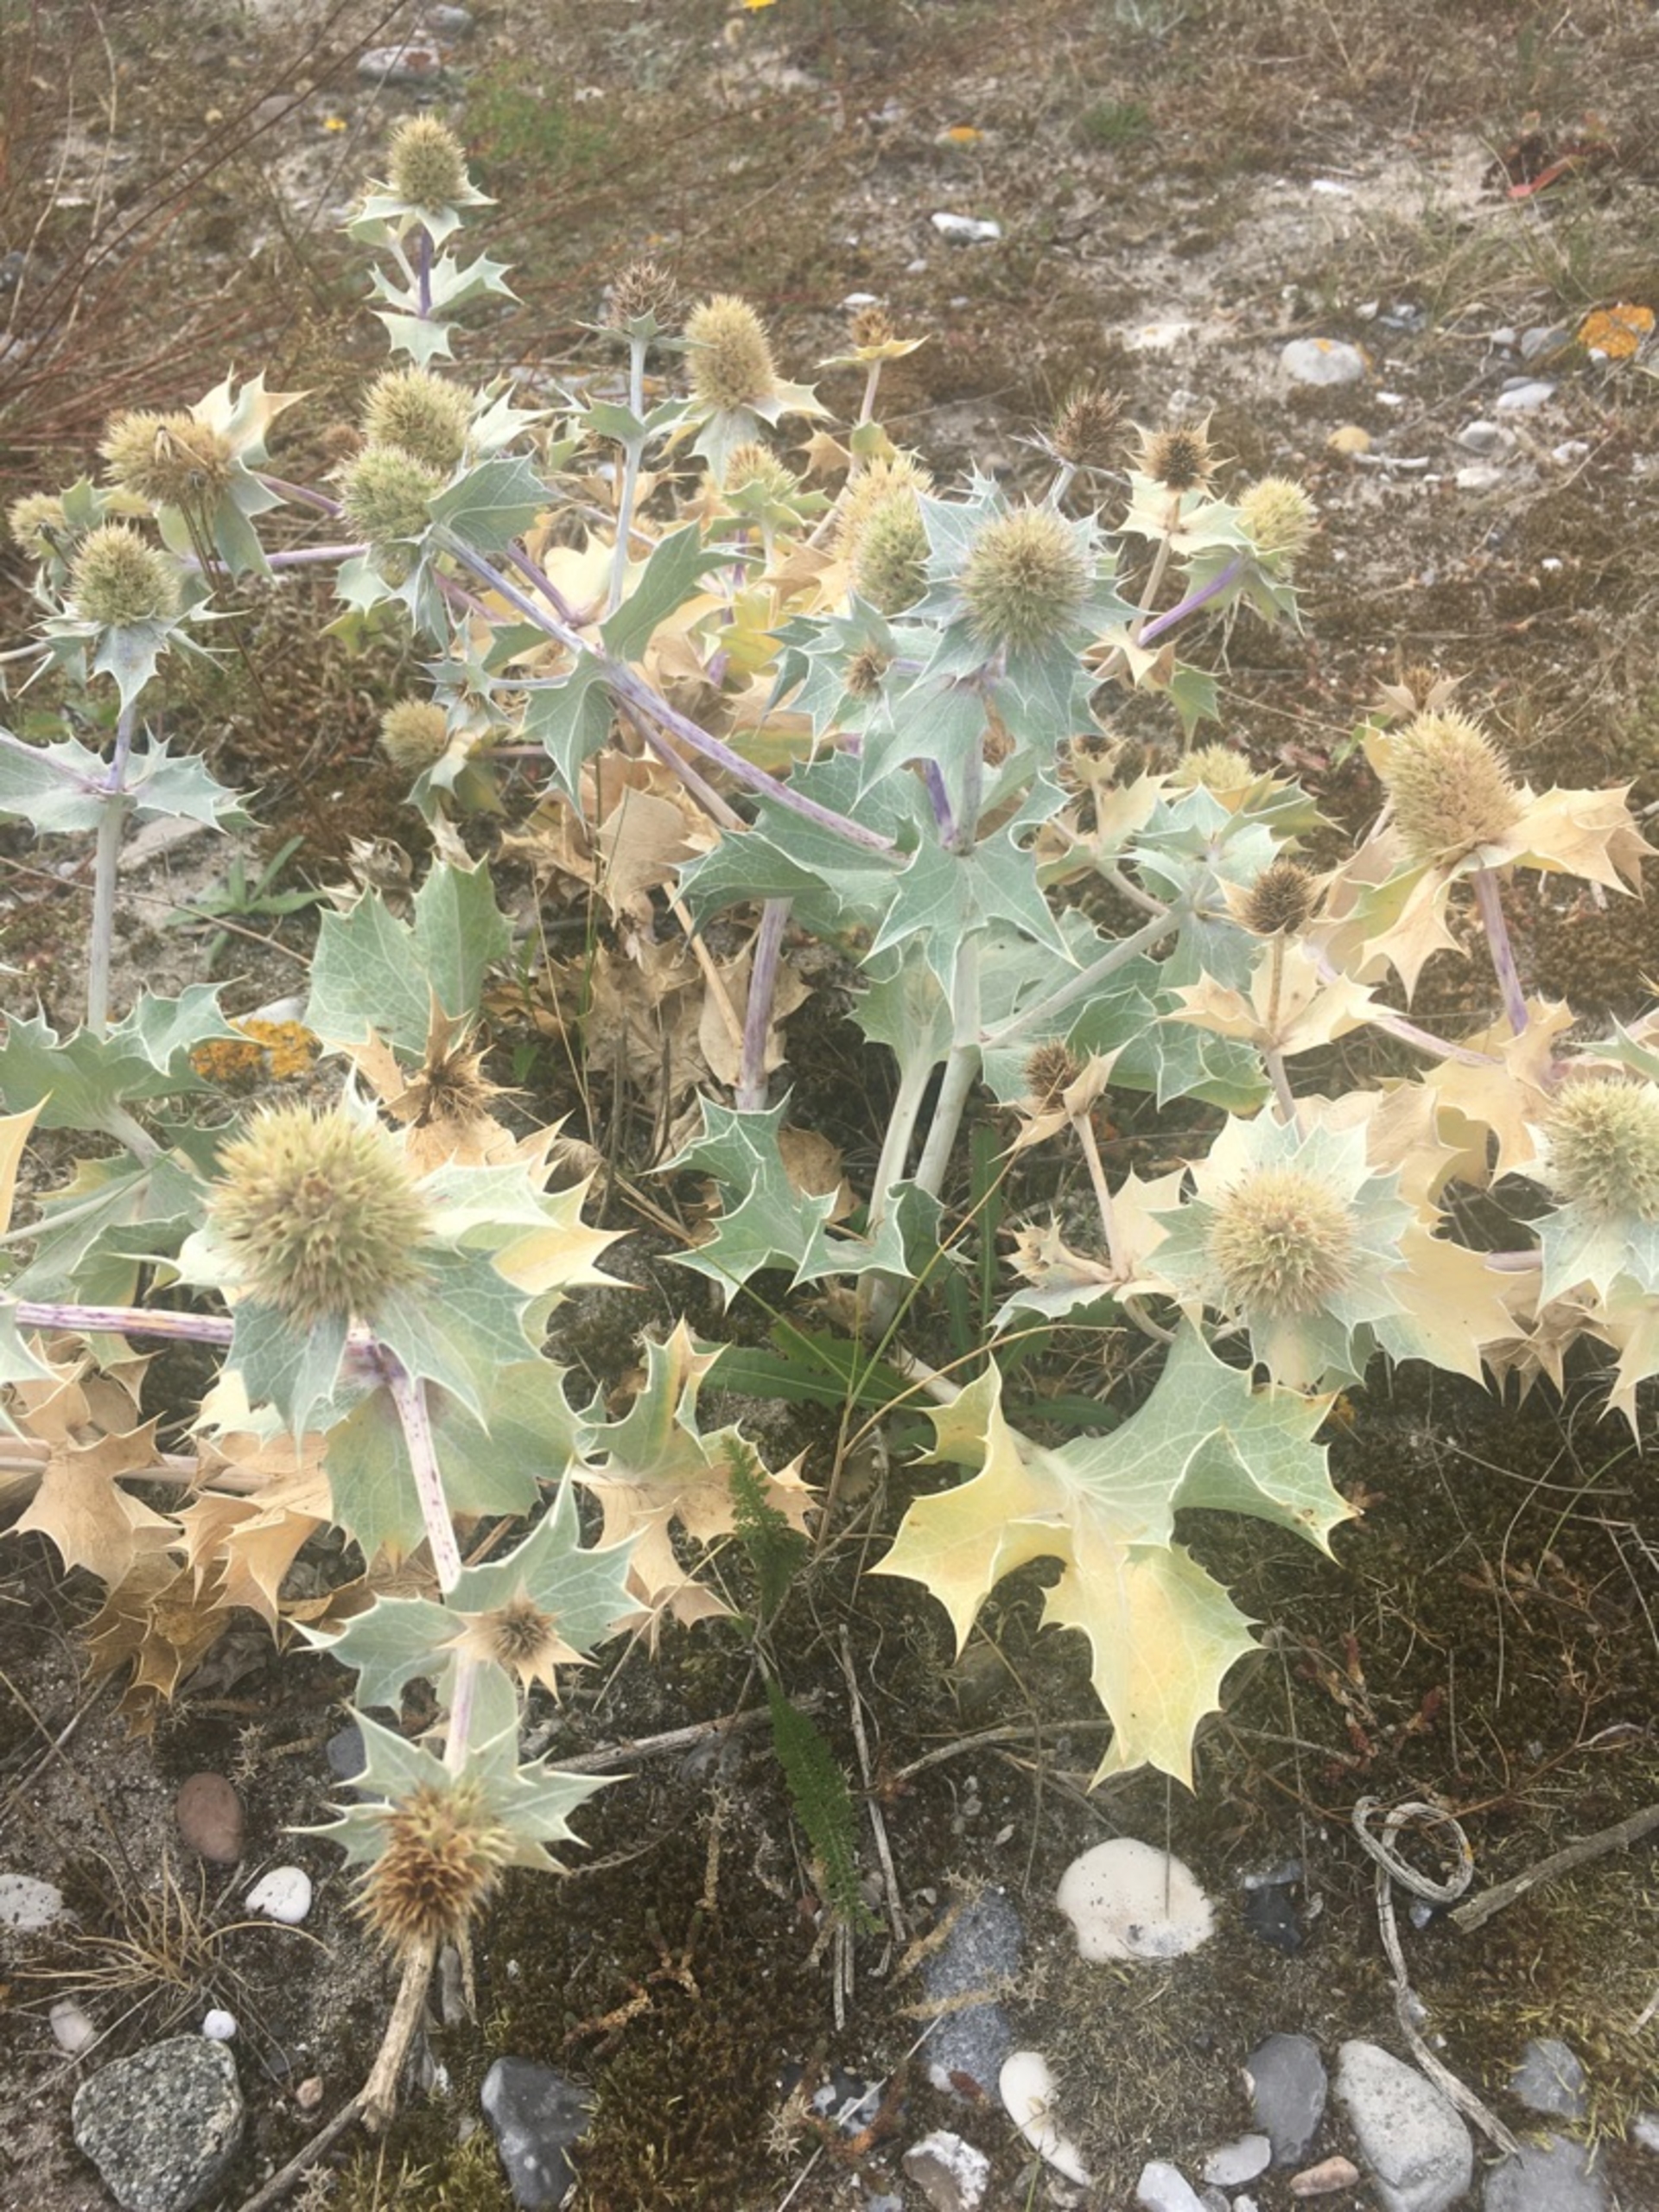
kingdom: Plantae
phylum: Tracheophyta
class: Magnoliopsida
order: Apiales
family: Apiaceae
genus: Eryngium
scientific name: Eryngium maritimum
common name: Strand-mandstro
